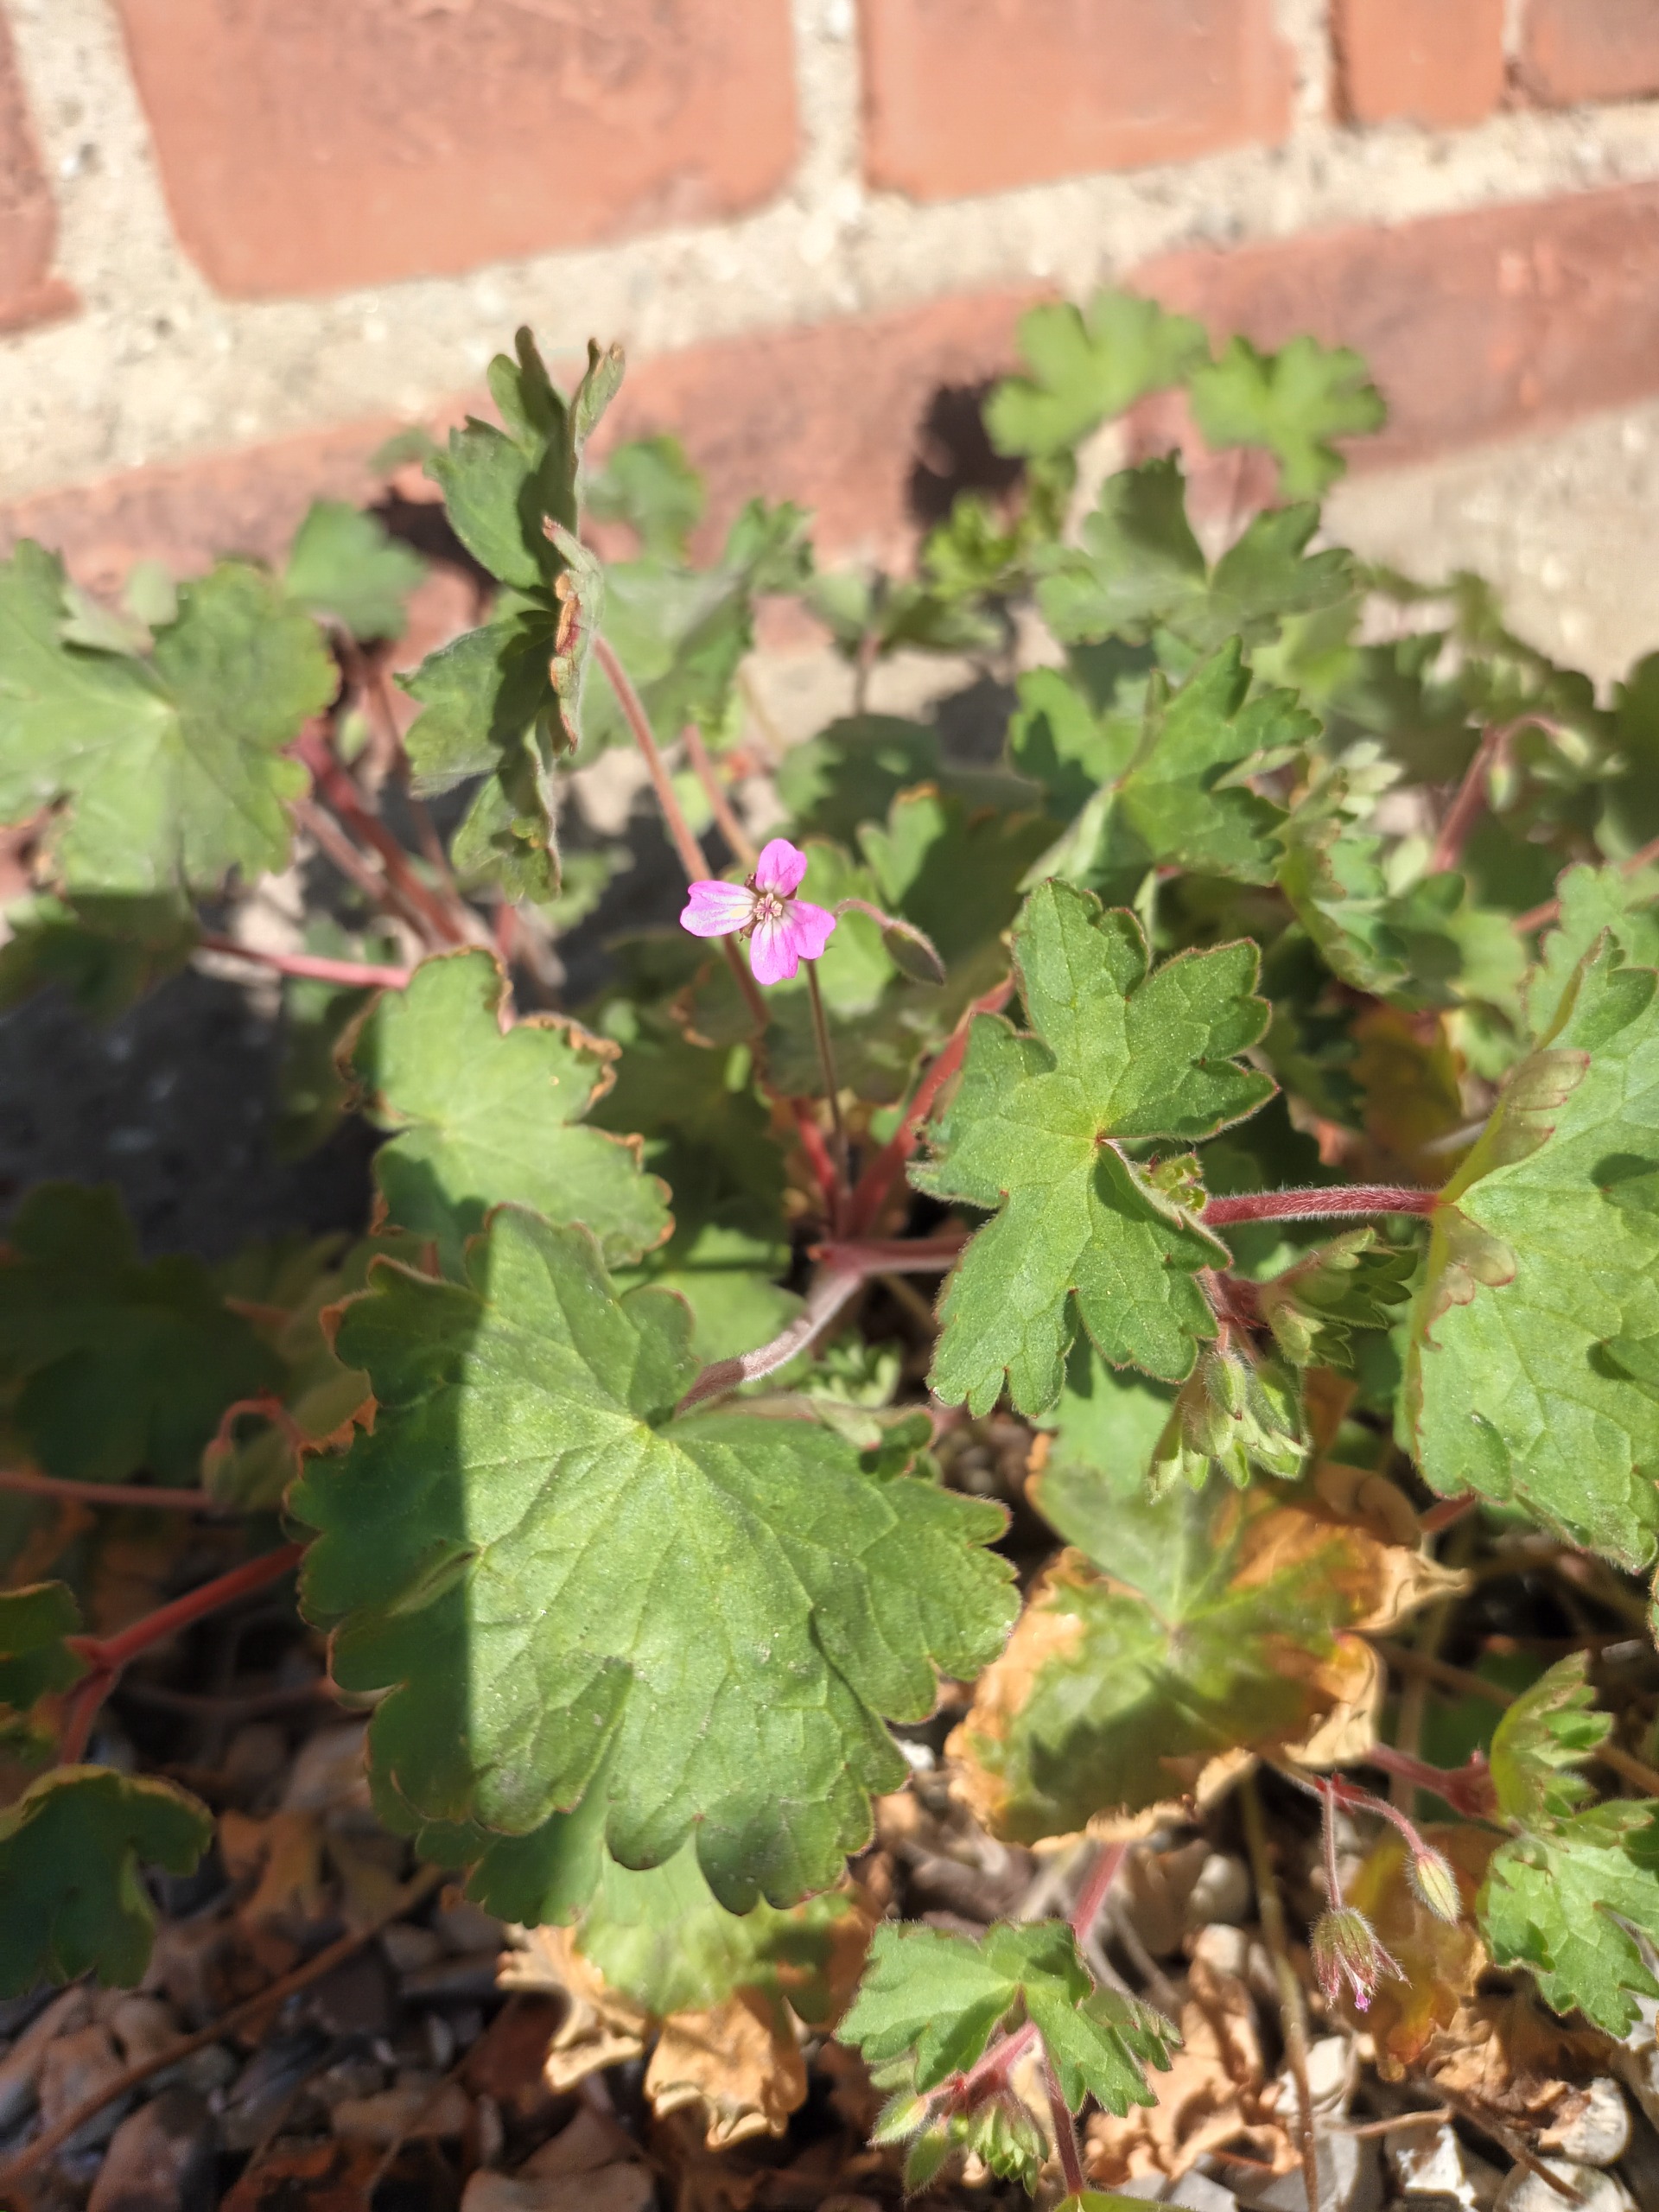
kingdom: Plantae
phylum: Tracheophyta
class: Magnoliopsida
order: Geraniales
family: Geraniaceae
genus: Geranium
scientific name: Geranium rotundifolium
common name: Rundbladet storkenæb
